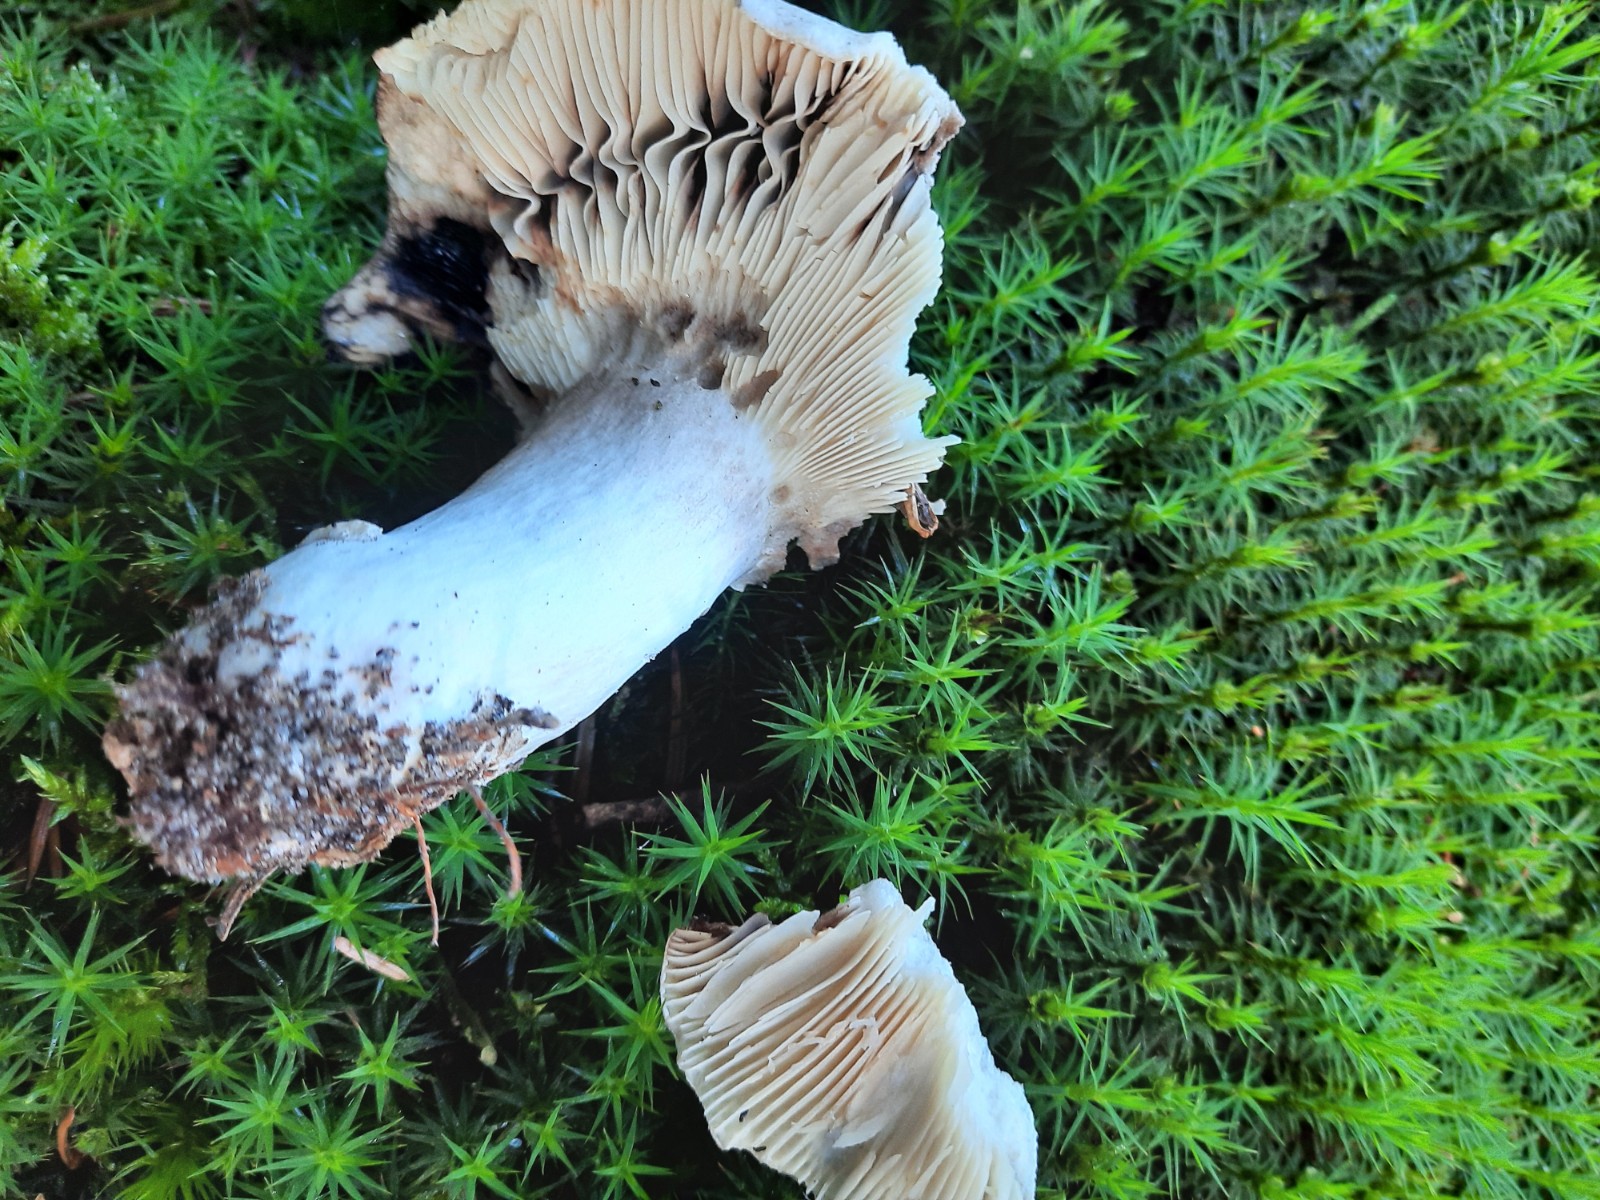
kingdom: Fungi
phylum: Basidiomycota
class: Agaricomycetes
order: Russulales
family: Russulaceae
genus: Russula
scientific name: Russula acrifolia
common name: skarpbladet skørhat
